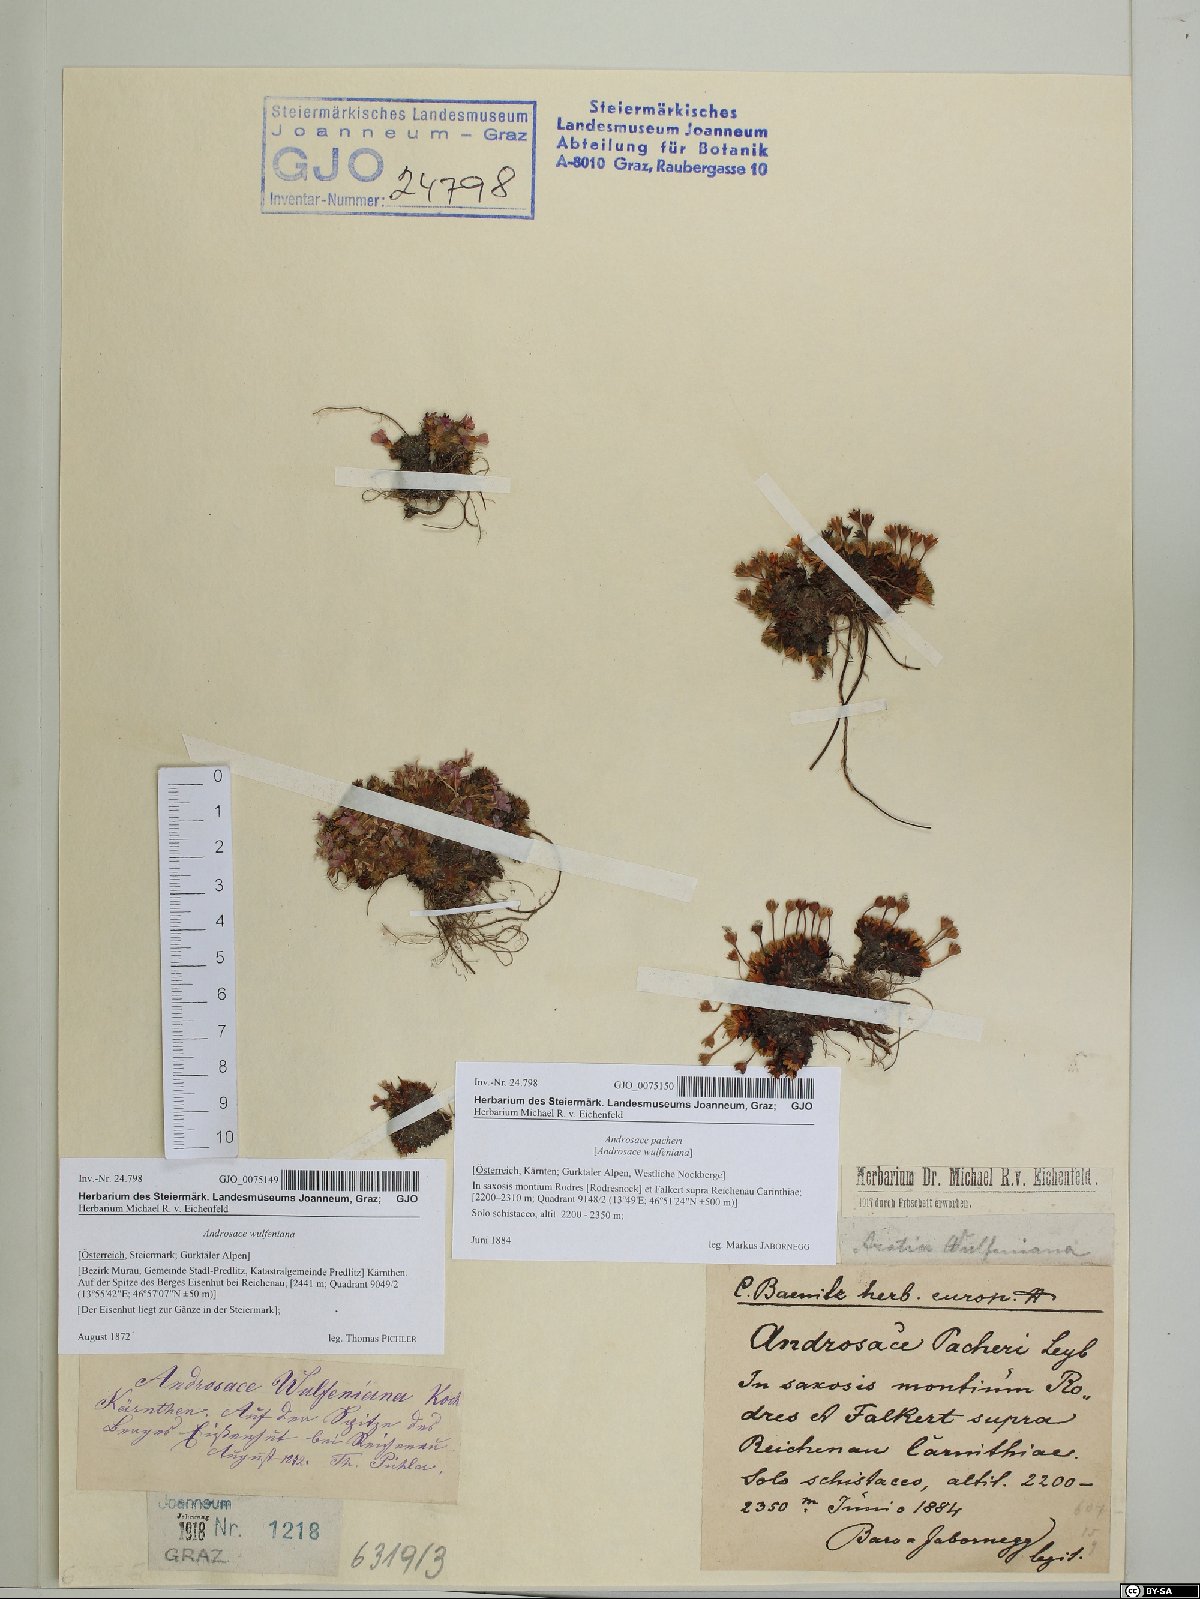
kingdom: Plantae
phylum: Tracheophyta
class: Magnoliopsida
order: Ericales
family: Primulaceae
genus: Androsace
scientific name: Androsace wulfeniana
